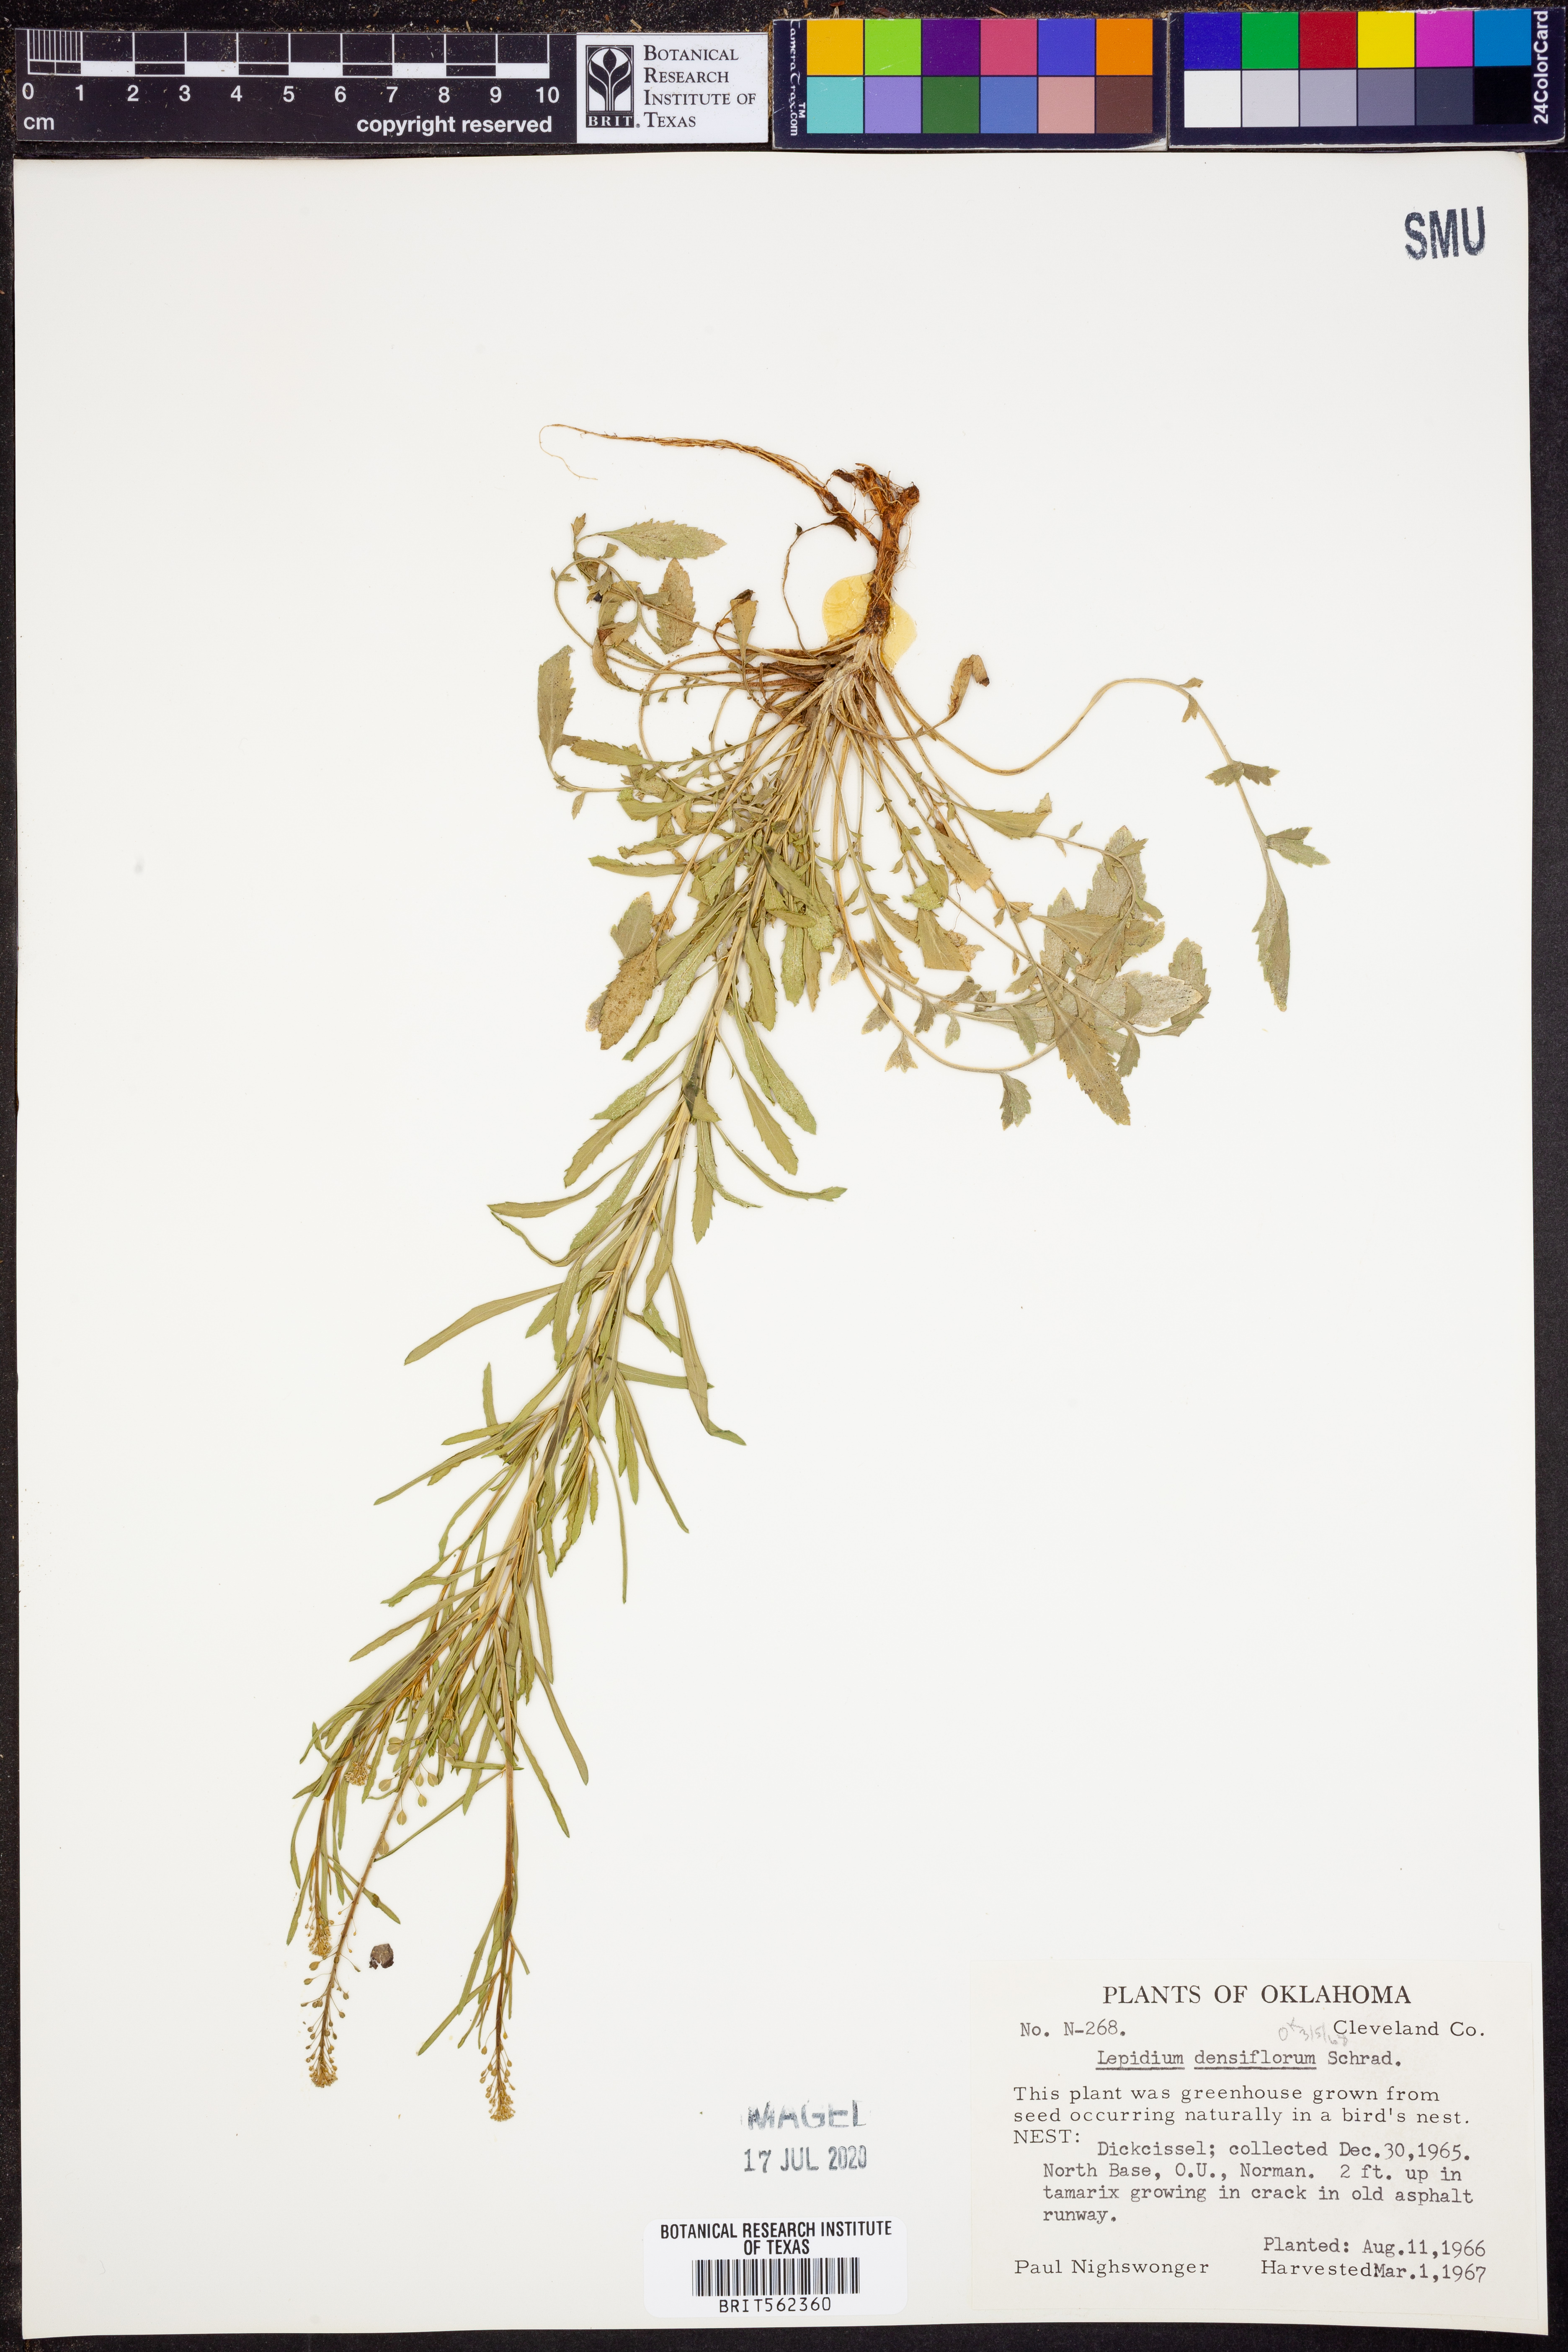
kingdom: Plantae
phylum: Tracheophyta
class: Magnoliopsida
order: Brassicales
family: Brassicaceae
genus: Lepidium
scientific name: Lepidium densiflorum
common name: Miner's pepperwort
